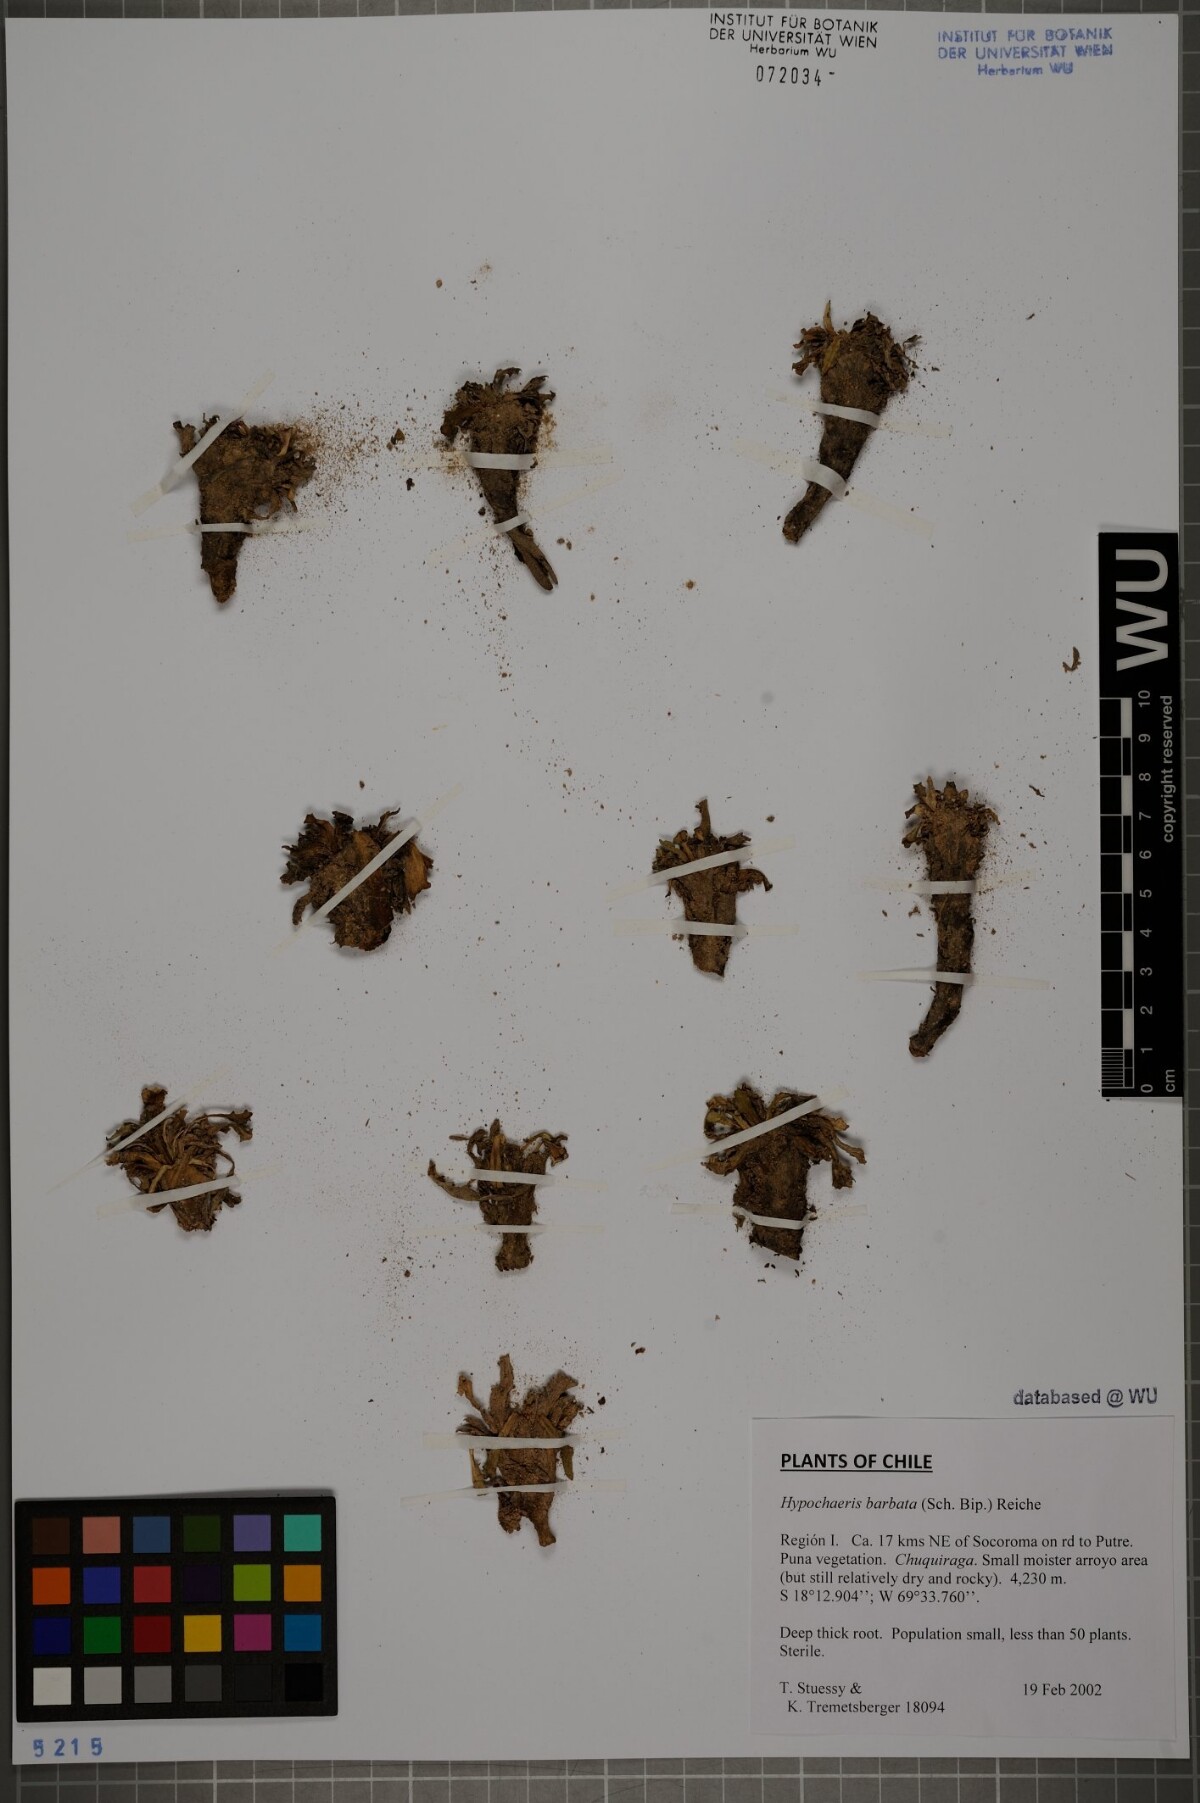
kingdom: Plantae
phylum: Tracheophyta
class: Magnoliopsida
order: Asterales
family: Asteraceae
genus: Hypochaeris
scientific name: Hypochaeris sessiliflora
